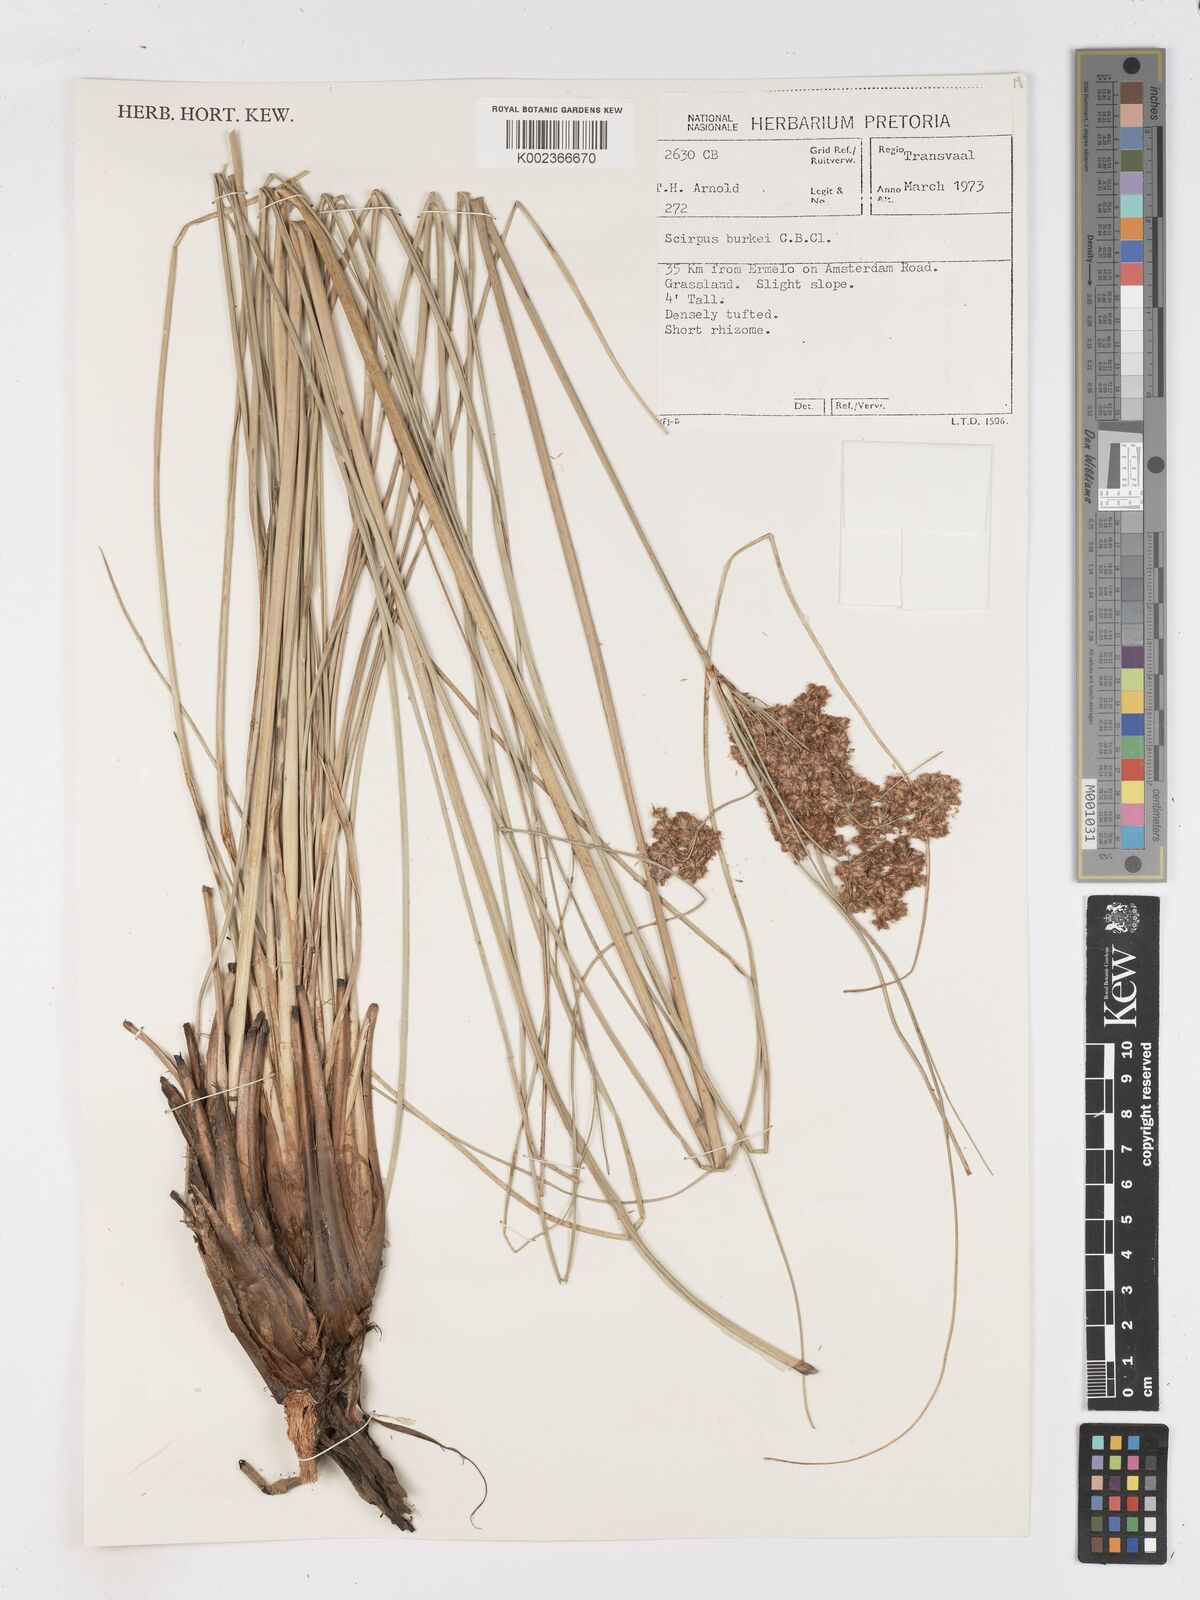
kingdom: Plantae
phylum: Tracheophyta
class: Liliopsida
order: Poales
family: Cyperaceae
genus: Scirpoides
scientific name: Scirpoides burkei
